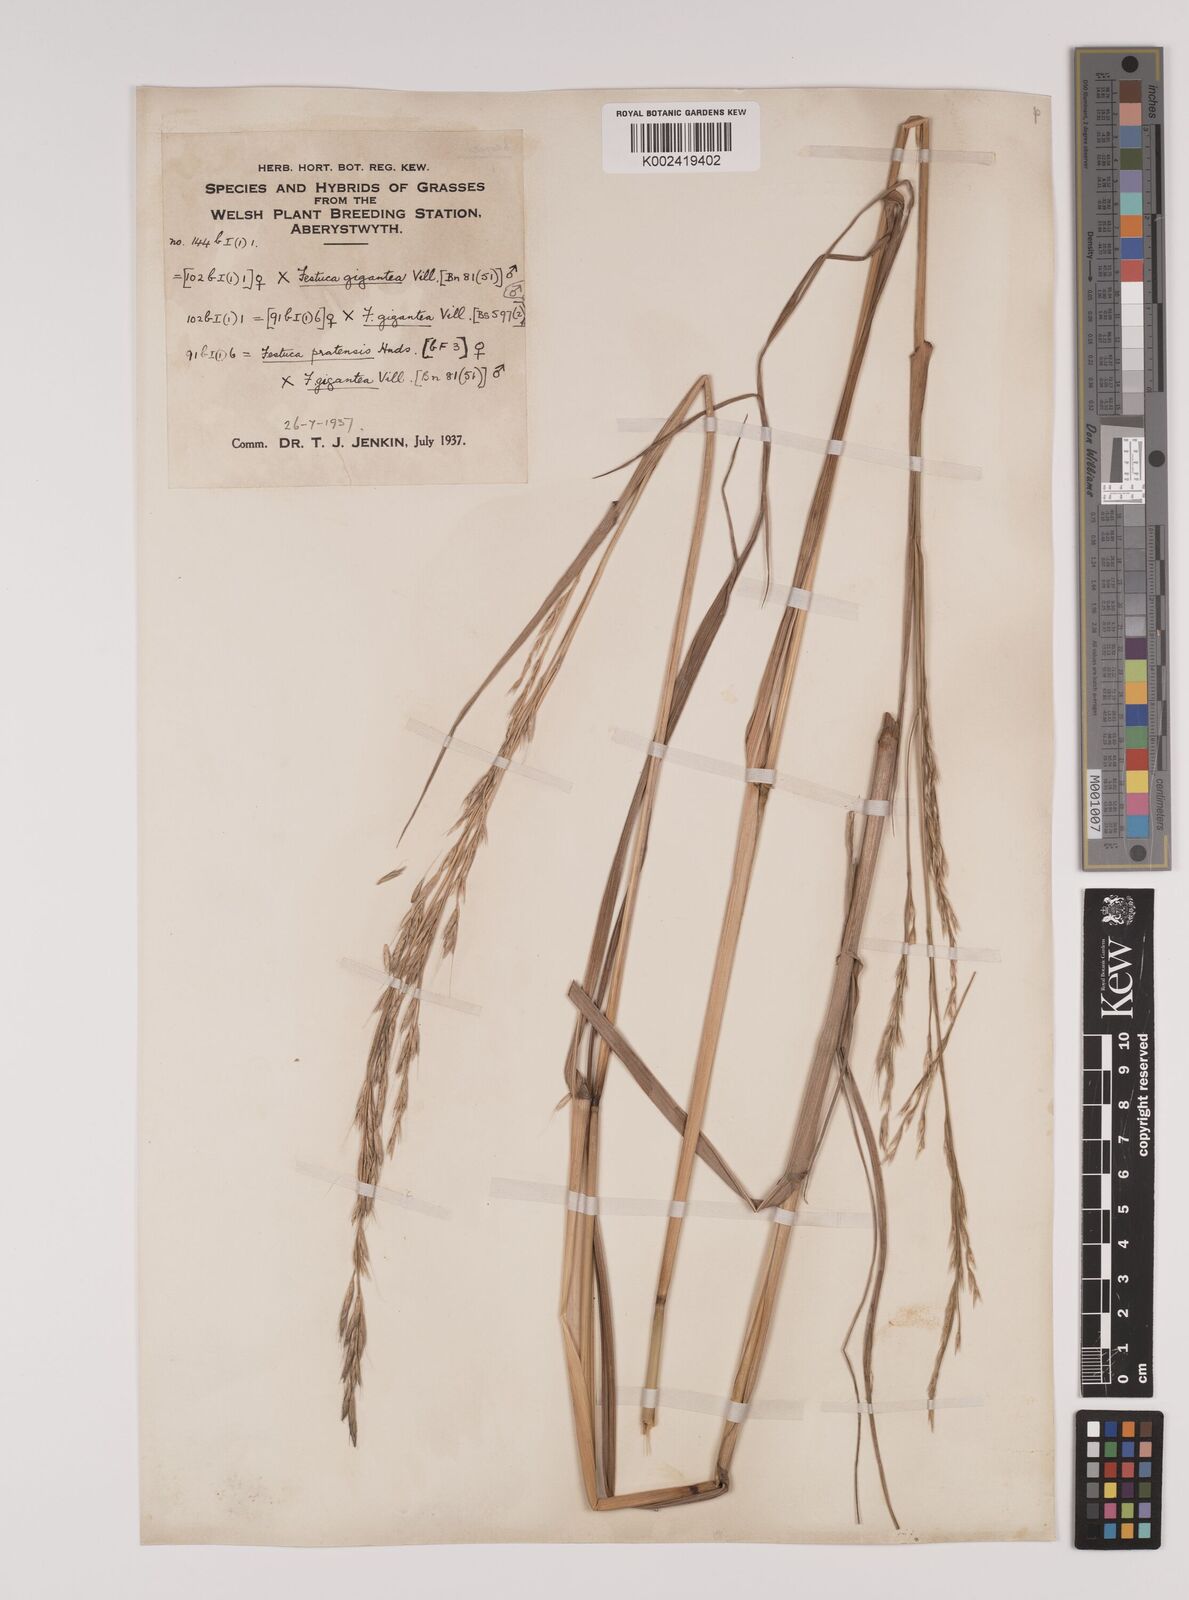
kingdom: Plantae
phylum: Tracheophyta
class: Liliopsida
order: Poales
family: Poaceae
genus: Lolium
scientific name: Lolium giganteum
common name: Giant fescue
